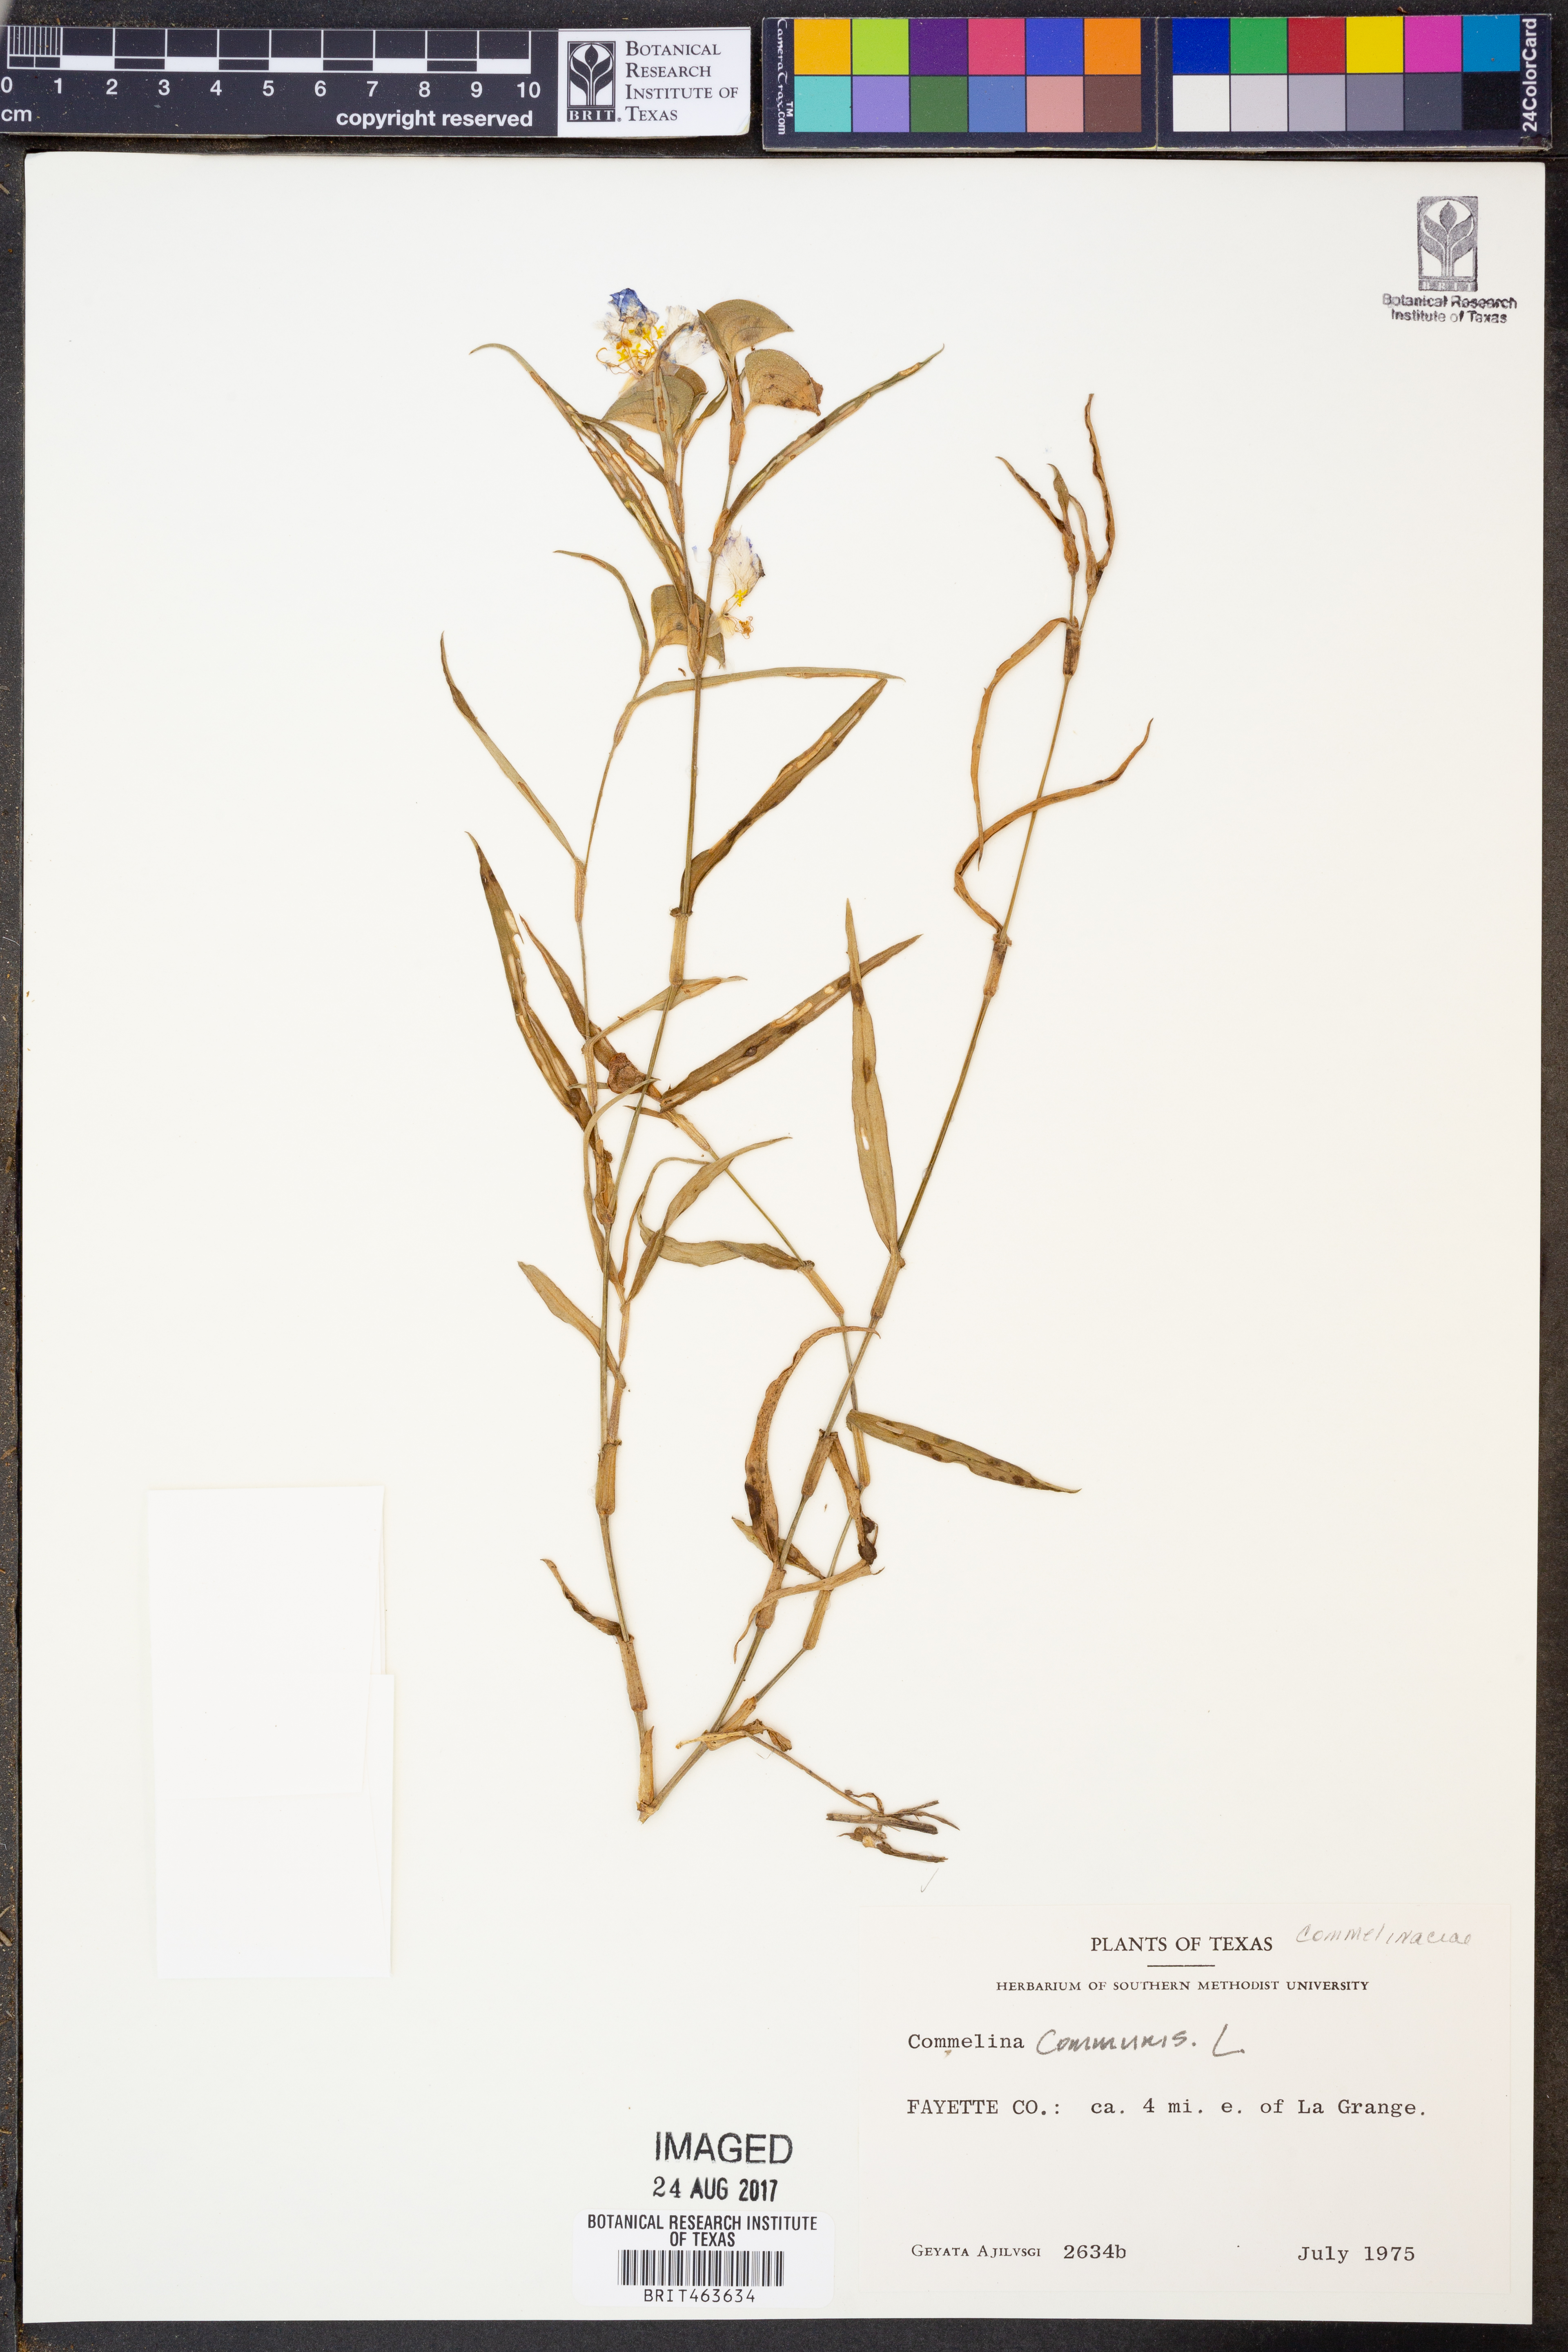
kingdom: Plantae
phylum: Tracheophyta
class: Liliopsida
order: Commelinales
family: Commelinaceae
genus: Commelina
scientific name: Commelina communis
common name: Asiatic dayflower
